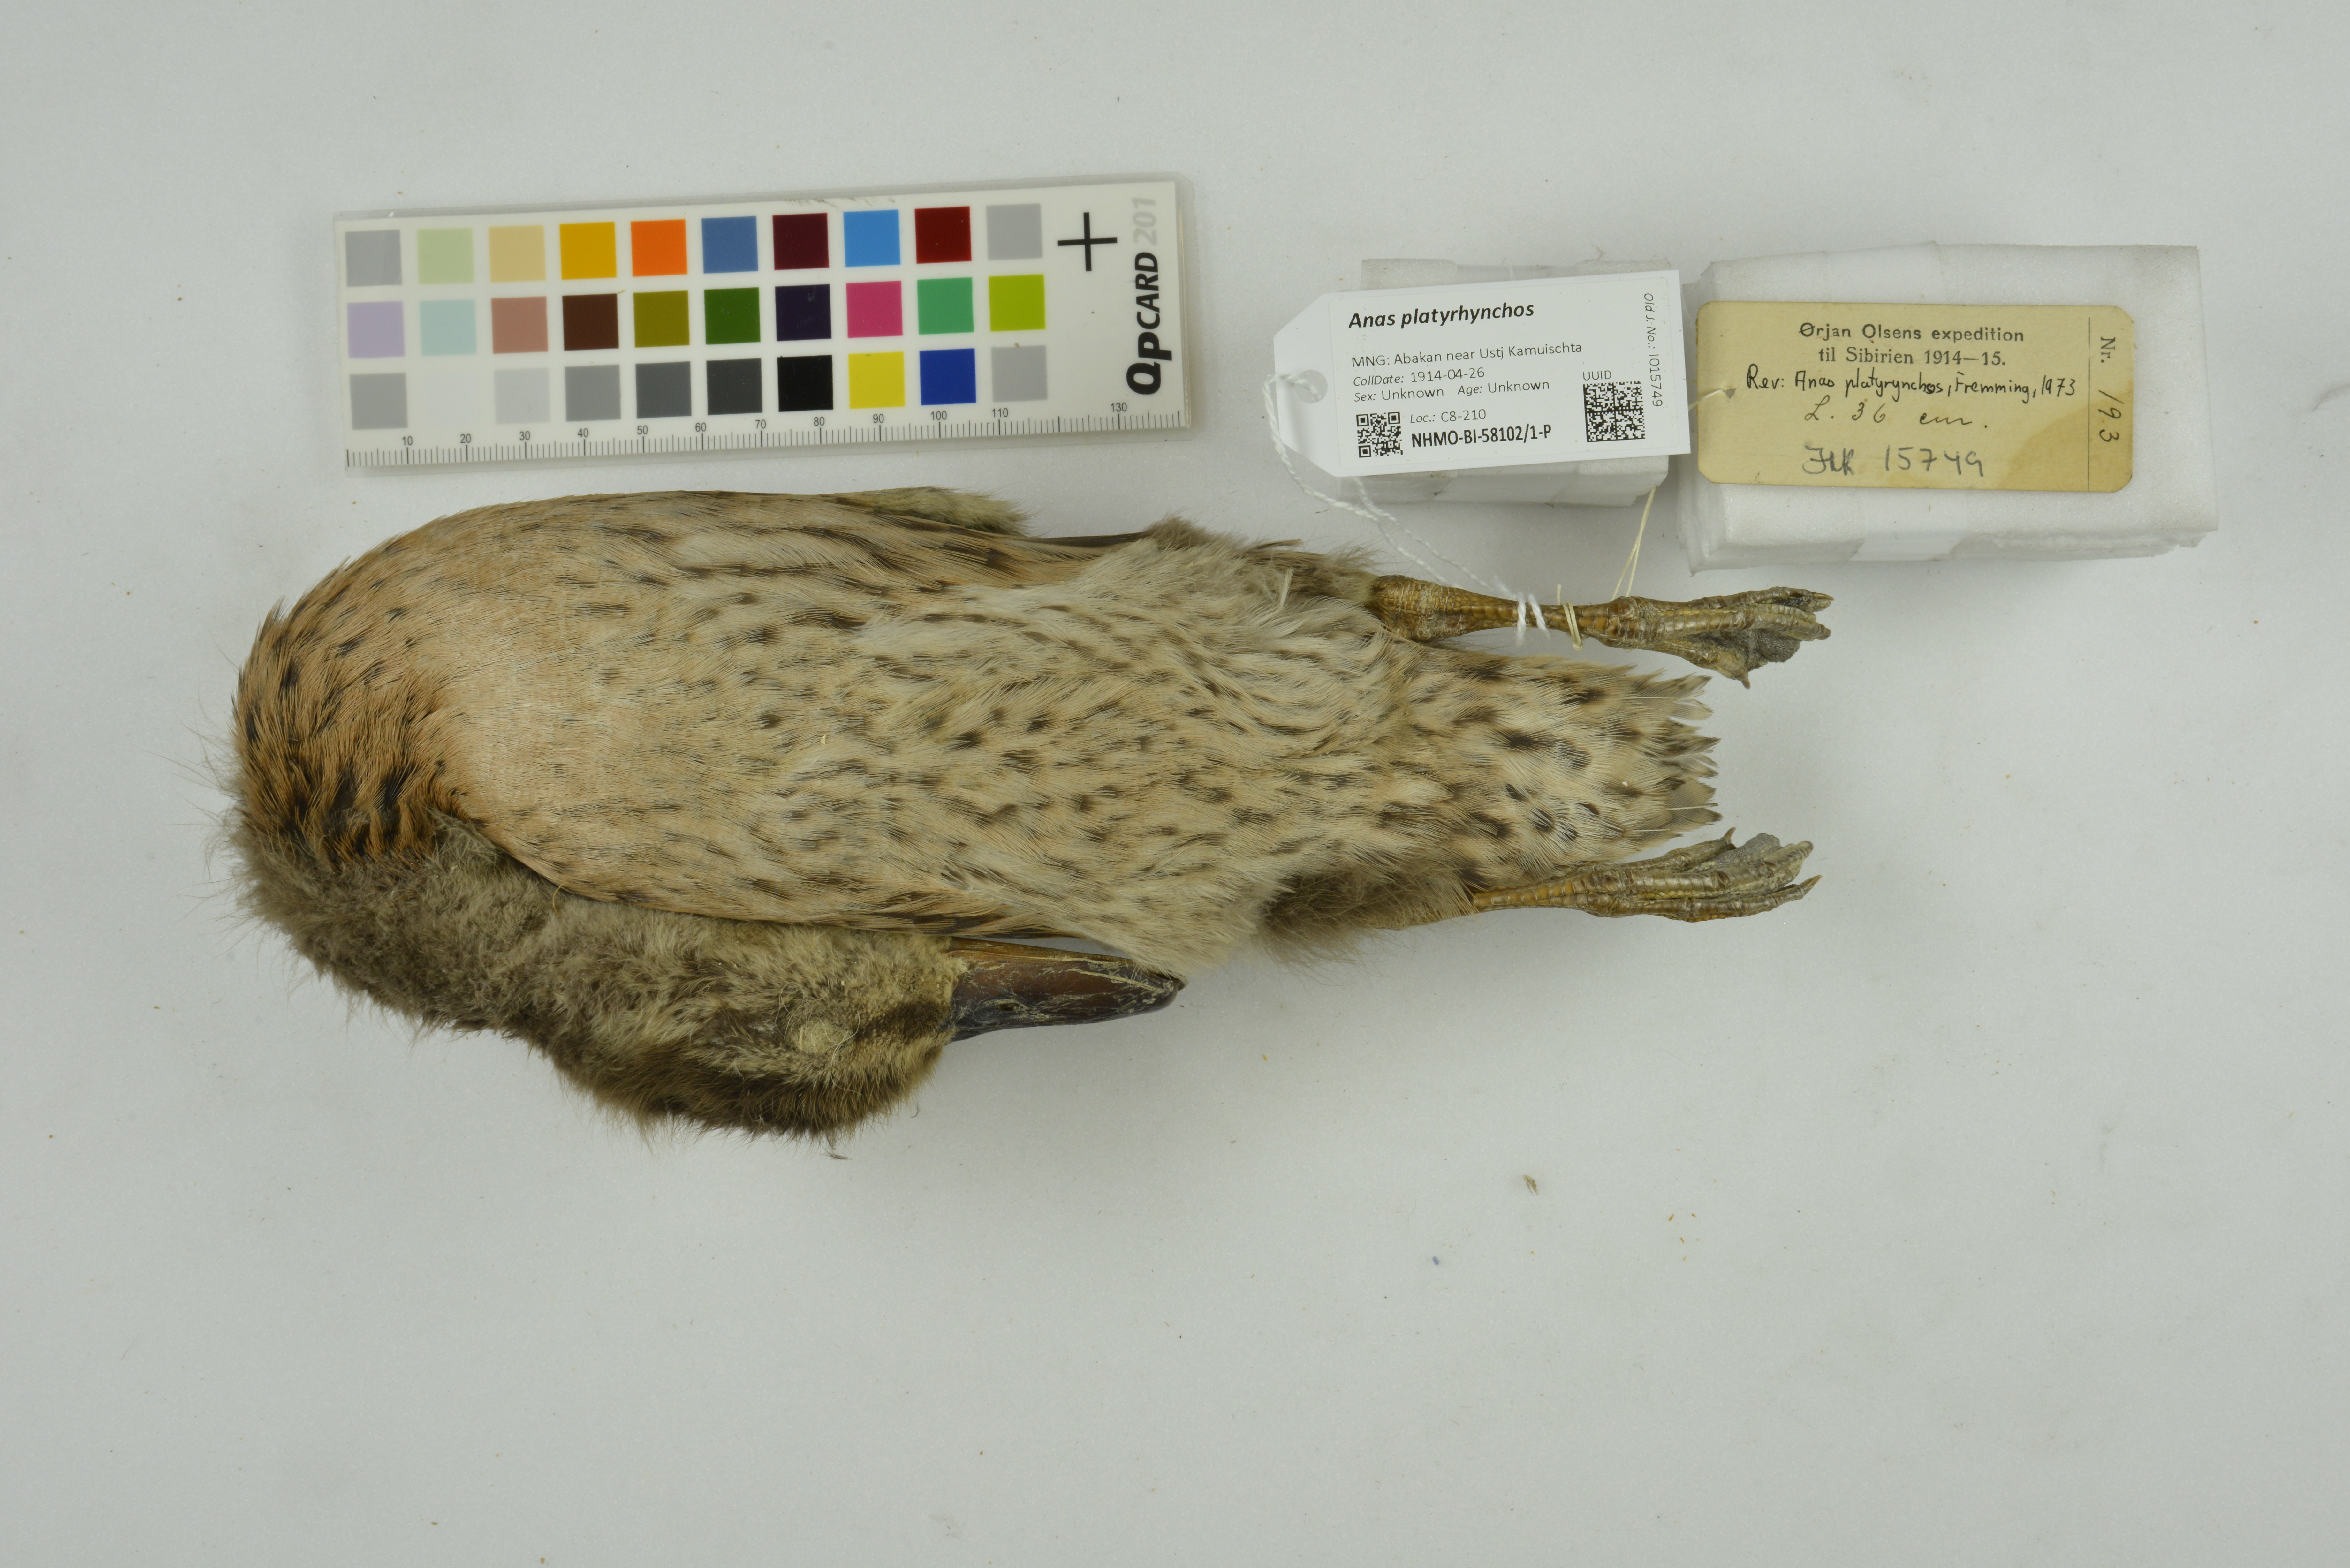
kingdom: Animalia
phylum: Chordata
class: Aves
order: Anseriformes
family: Anatidae
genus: Anas
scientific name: Anas platyrhynchos
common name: Mallard
